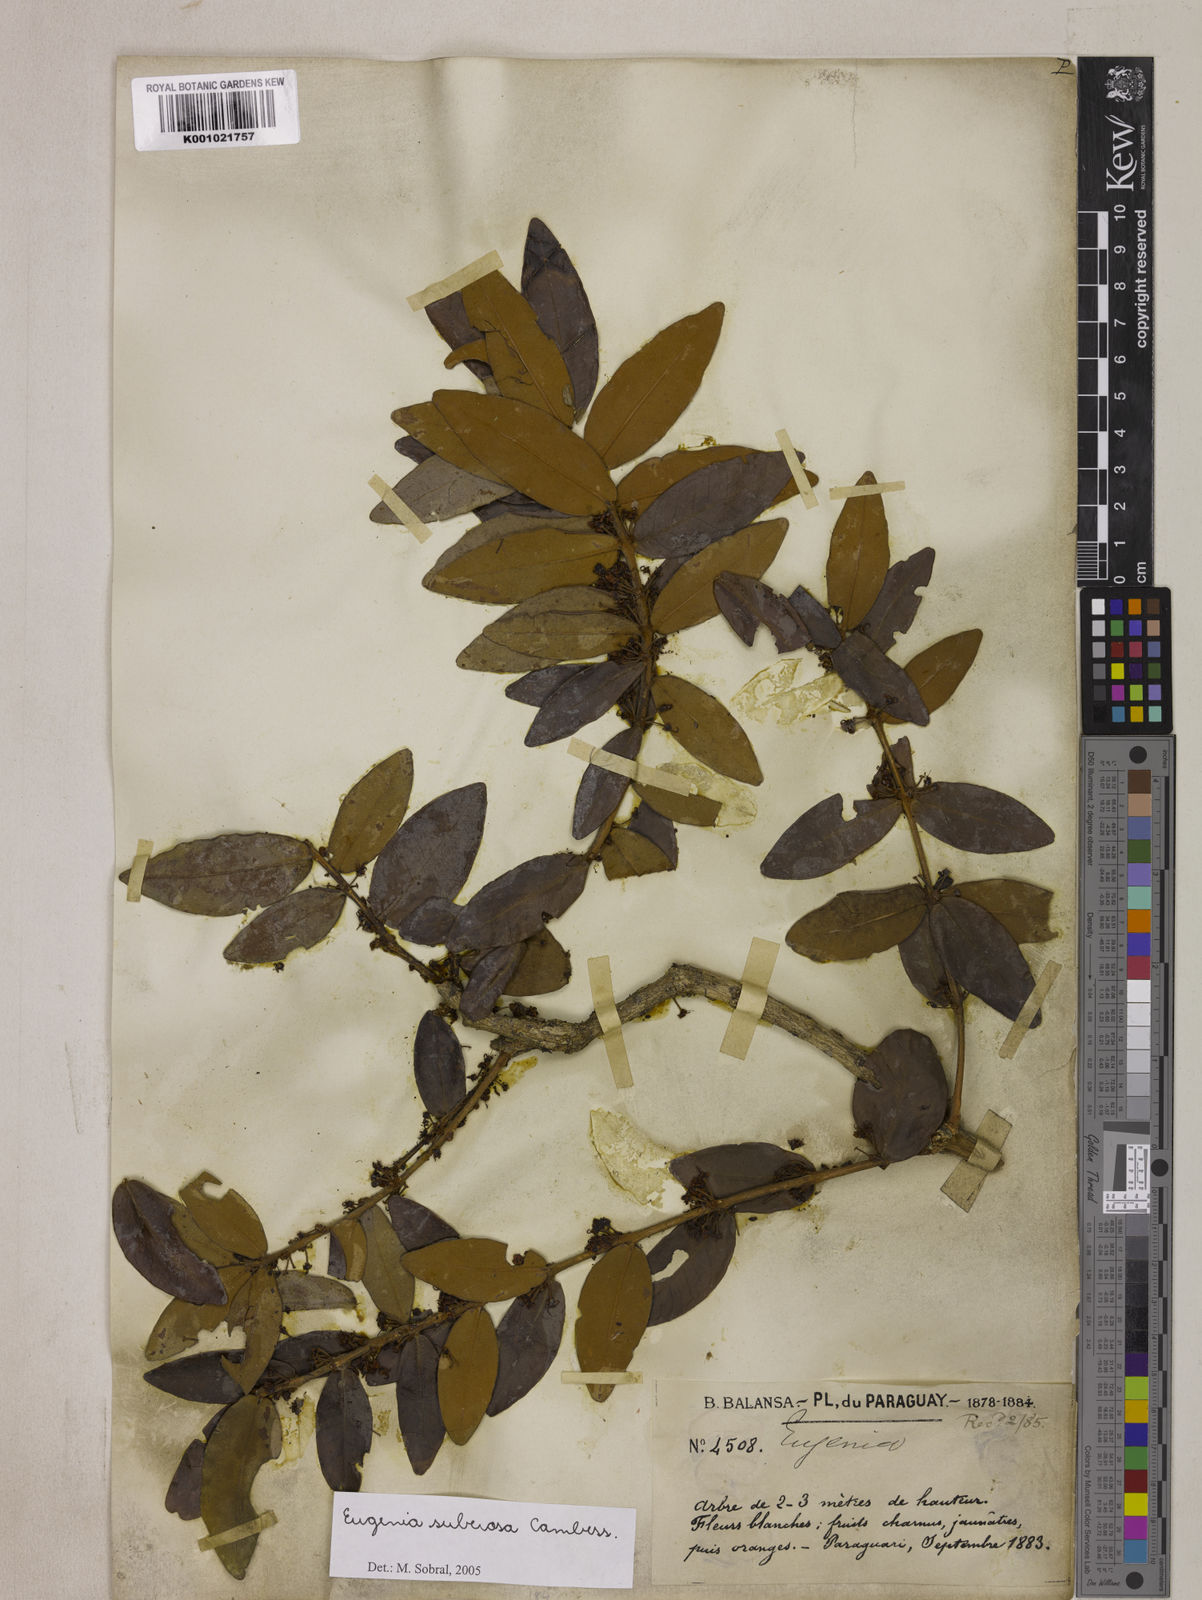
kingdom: Plantae
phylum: Tracheophyta
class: Magnoliopsida
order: Myrtales
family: Myrtaceae
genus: Eugenia
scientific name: Eugenia suberosa
